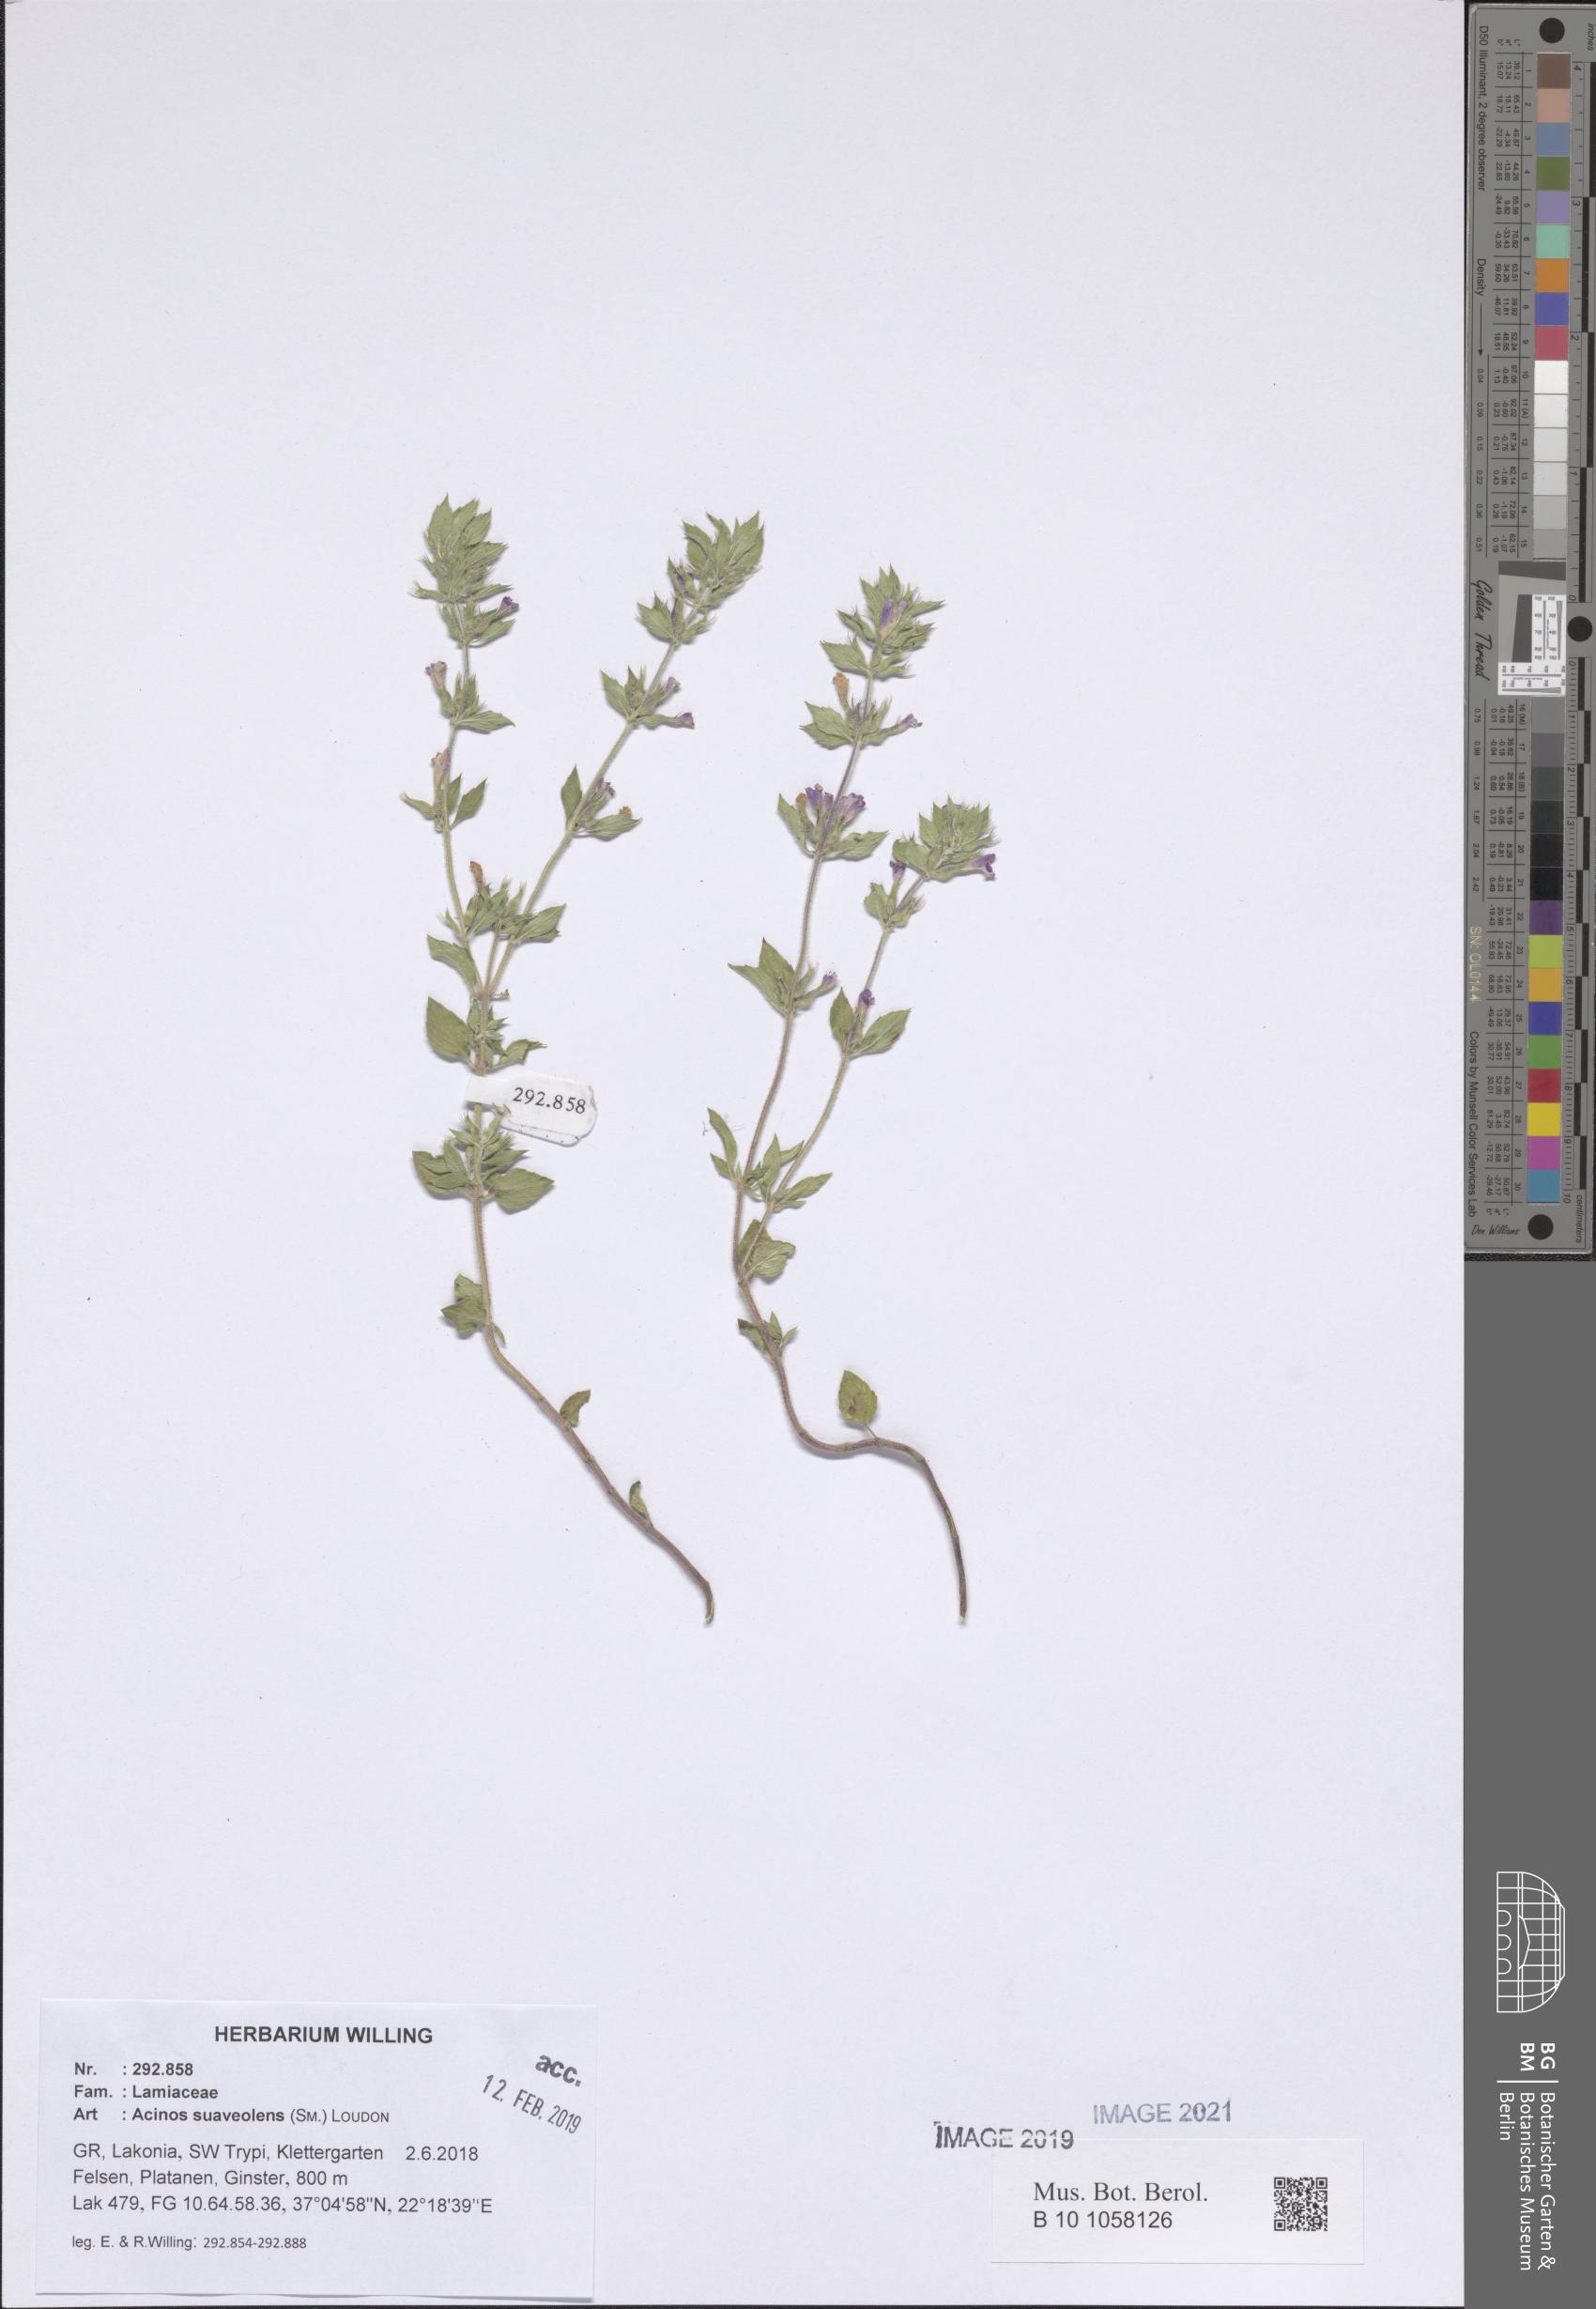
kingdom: Plantae
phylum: Tracheophyta
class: Magnoliopsida
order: Lamiales
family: Lamiaceae
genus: Clinopodium
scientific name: Clinopodium suaveolens
